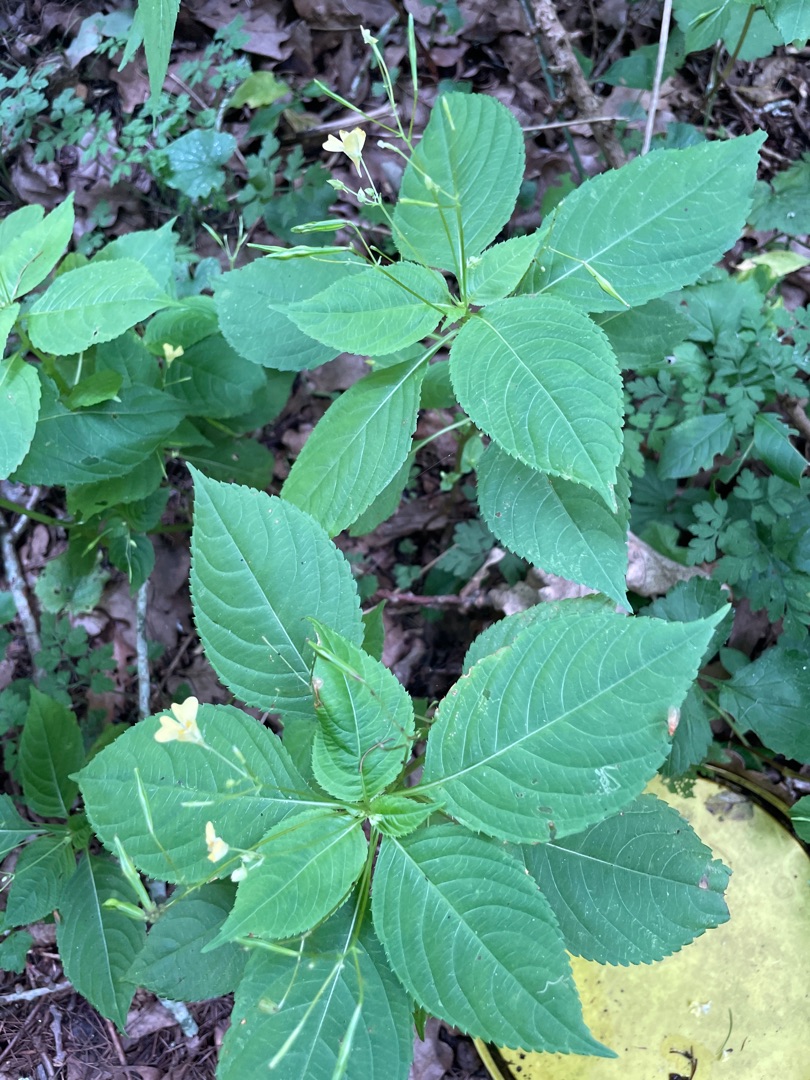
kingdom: Plantae
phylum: Tracheophyta
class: Magnoliopsida
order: Ericales
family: Balsaminaceae
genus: Impatiens
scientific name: Impatiens parviflora
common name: Småblomstret balsamin
